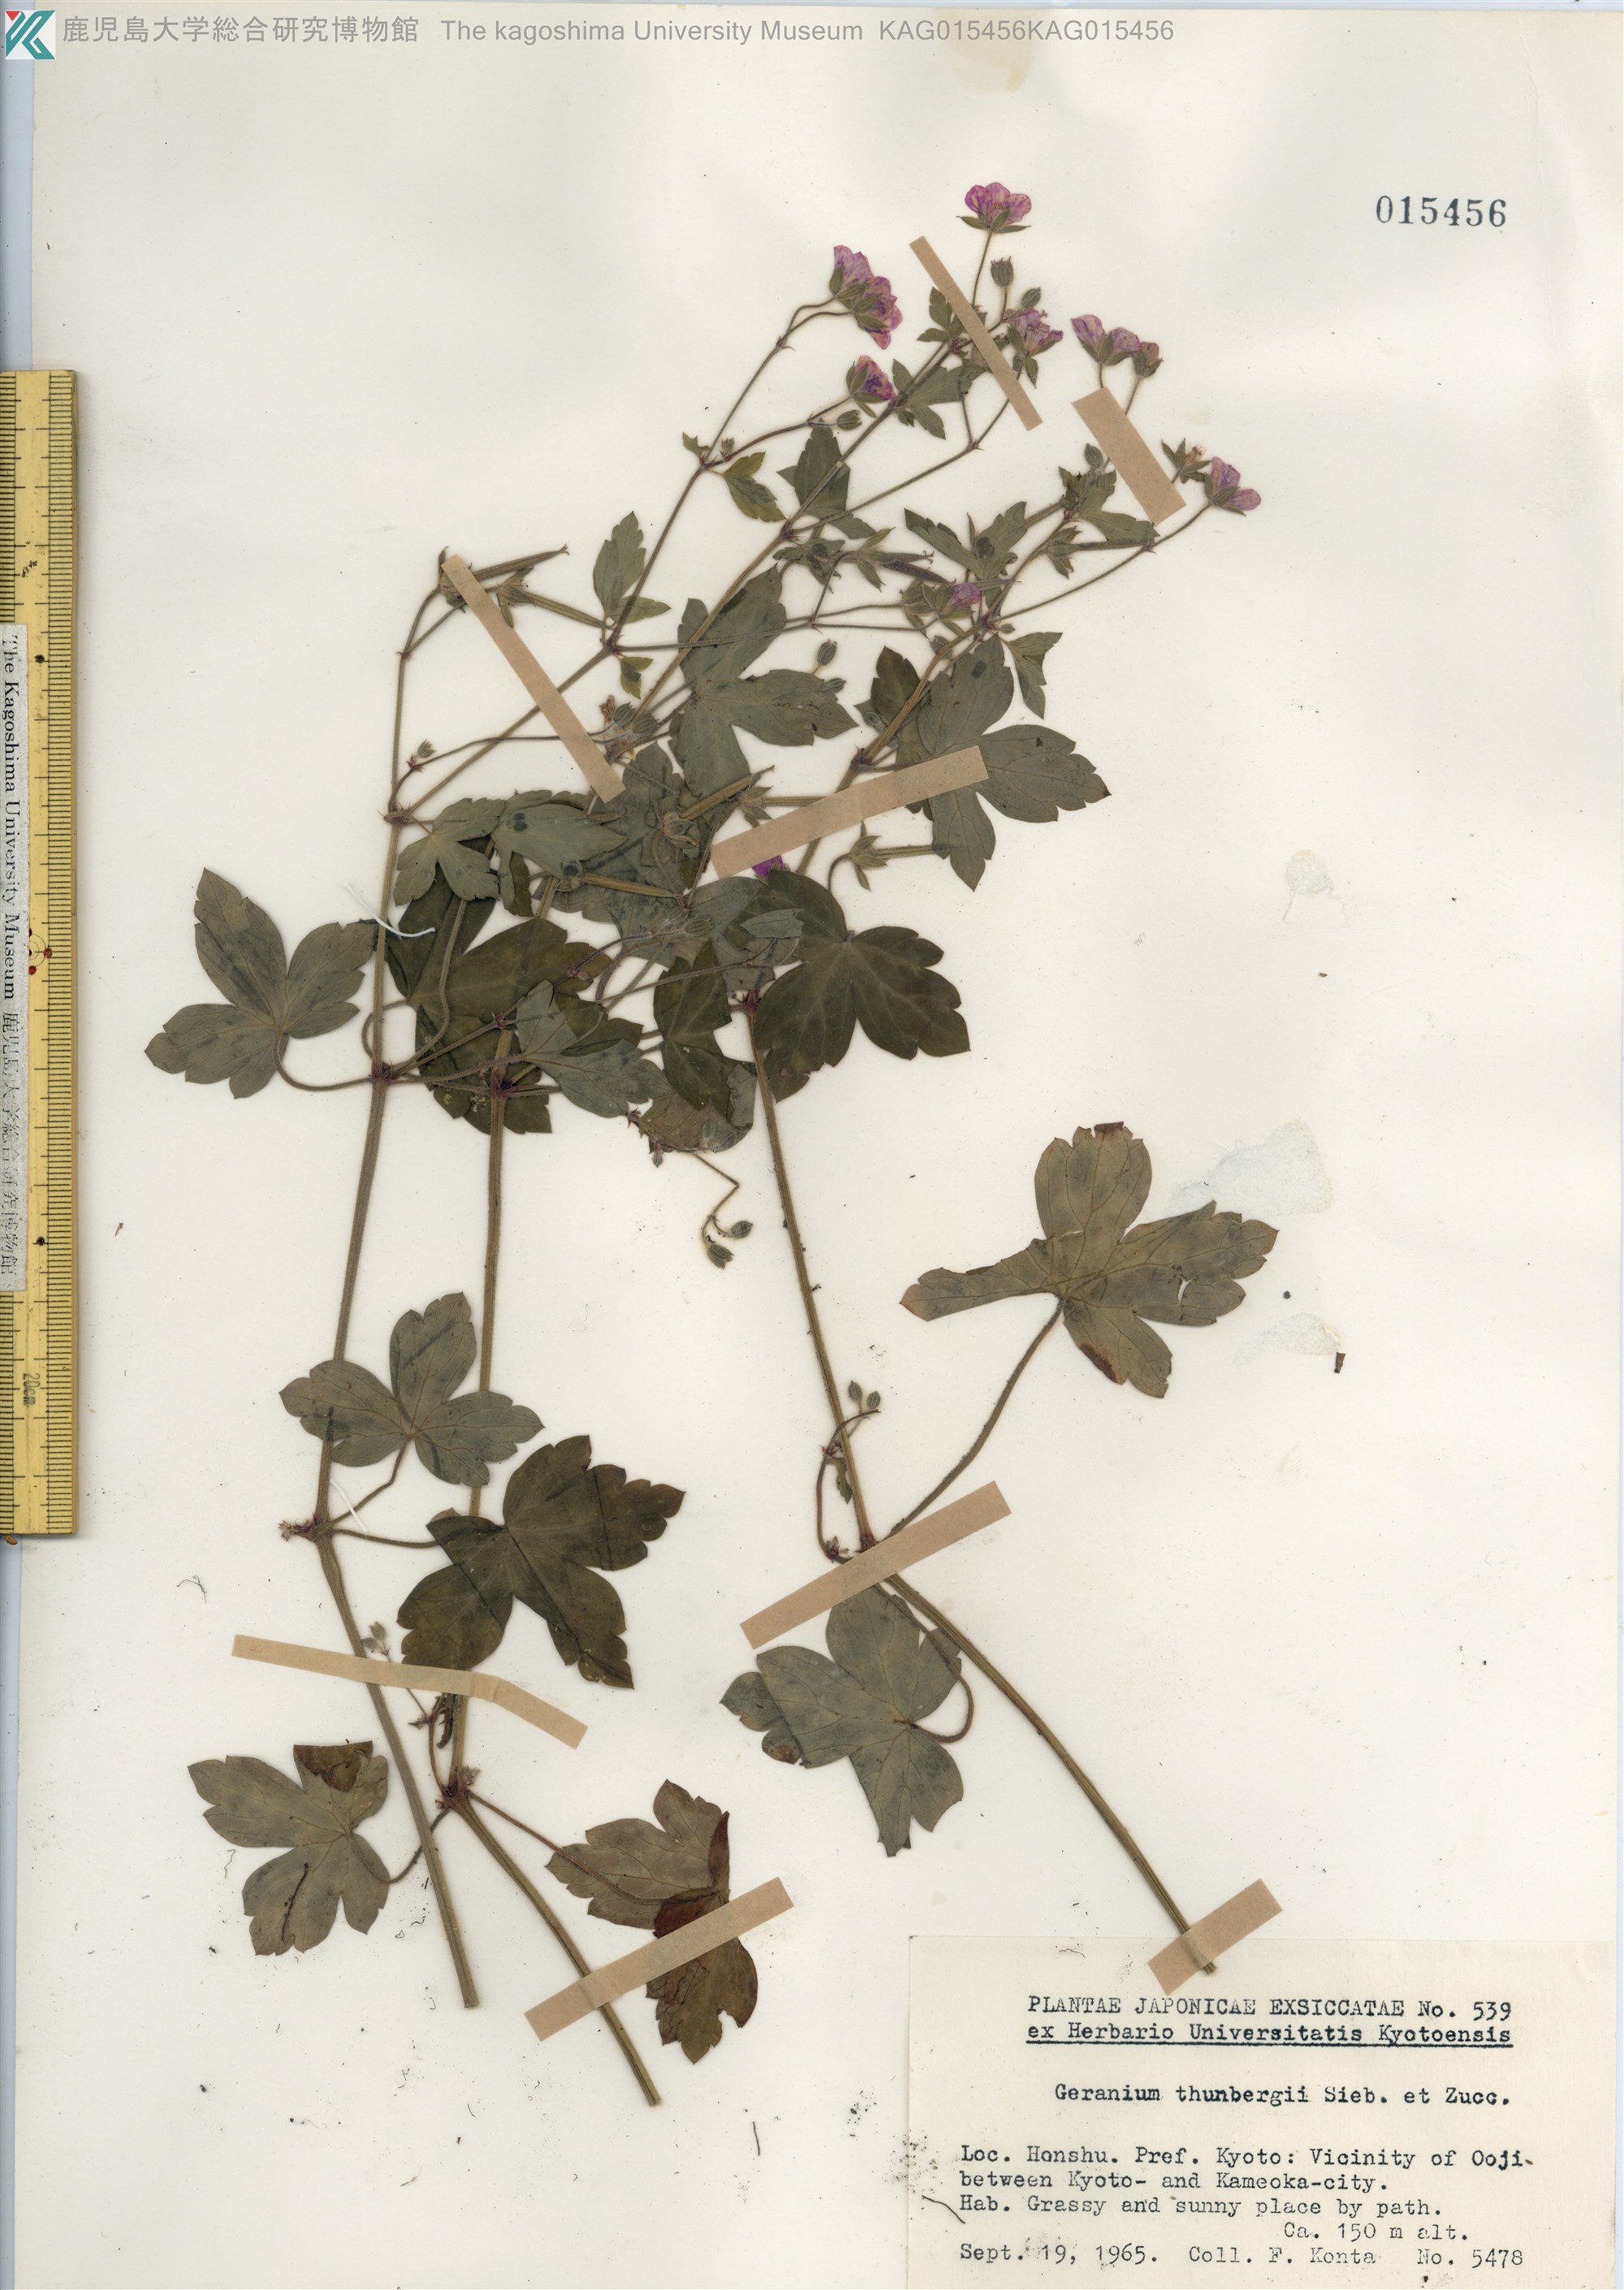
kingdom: Plantae
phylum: Tracheophyta
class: Magnoliopsida
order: Geraniales
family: Geraniaceae
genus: Geranium
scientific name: Geranium thunbergii
